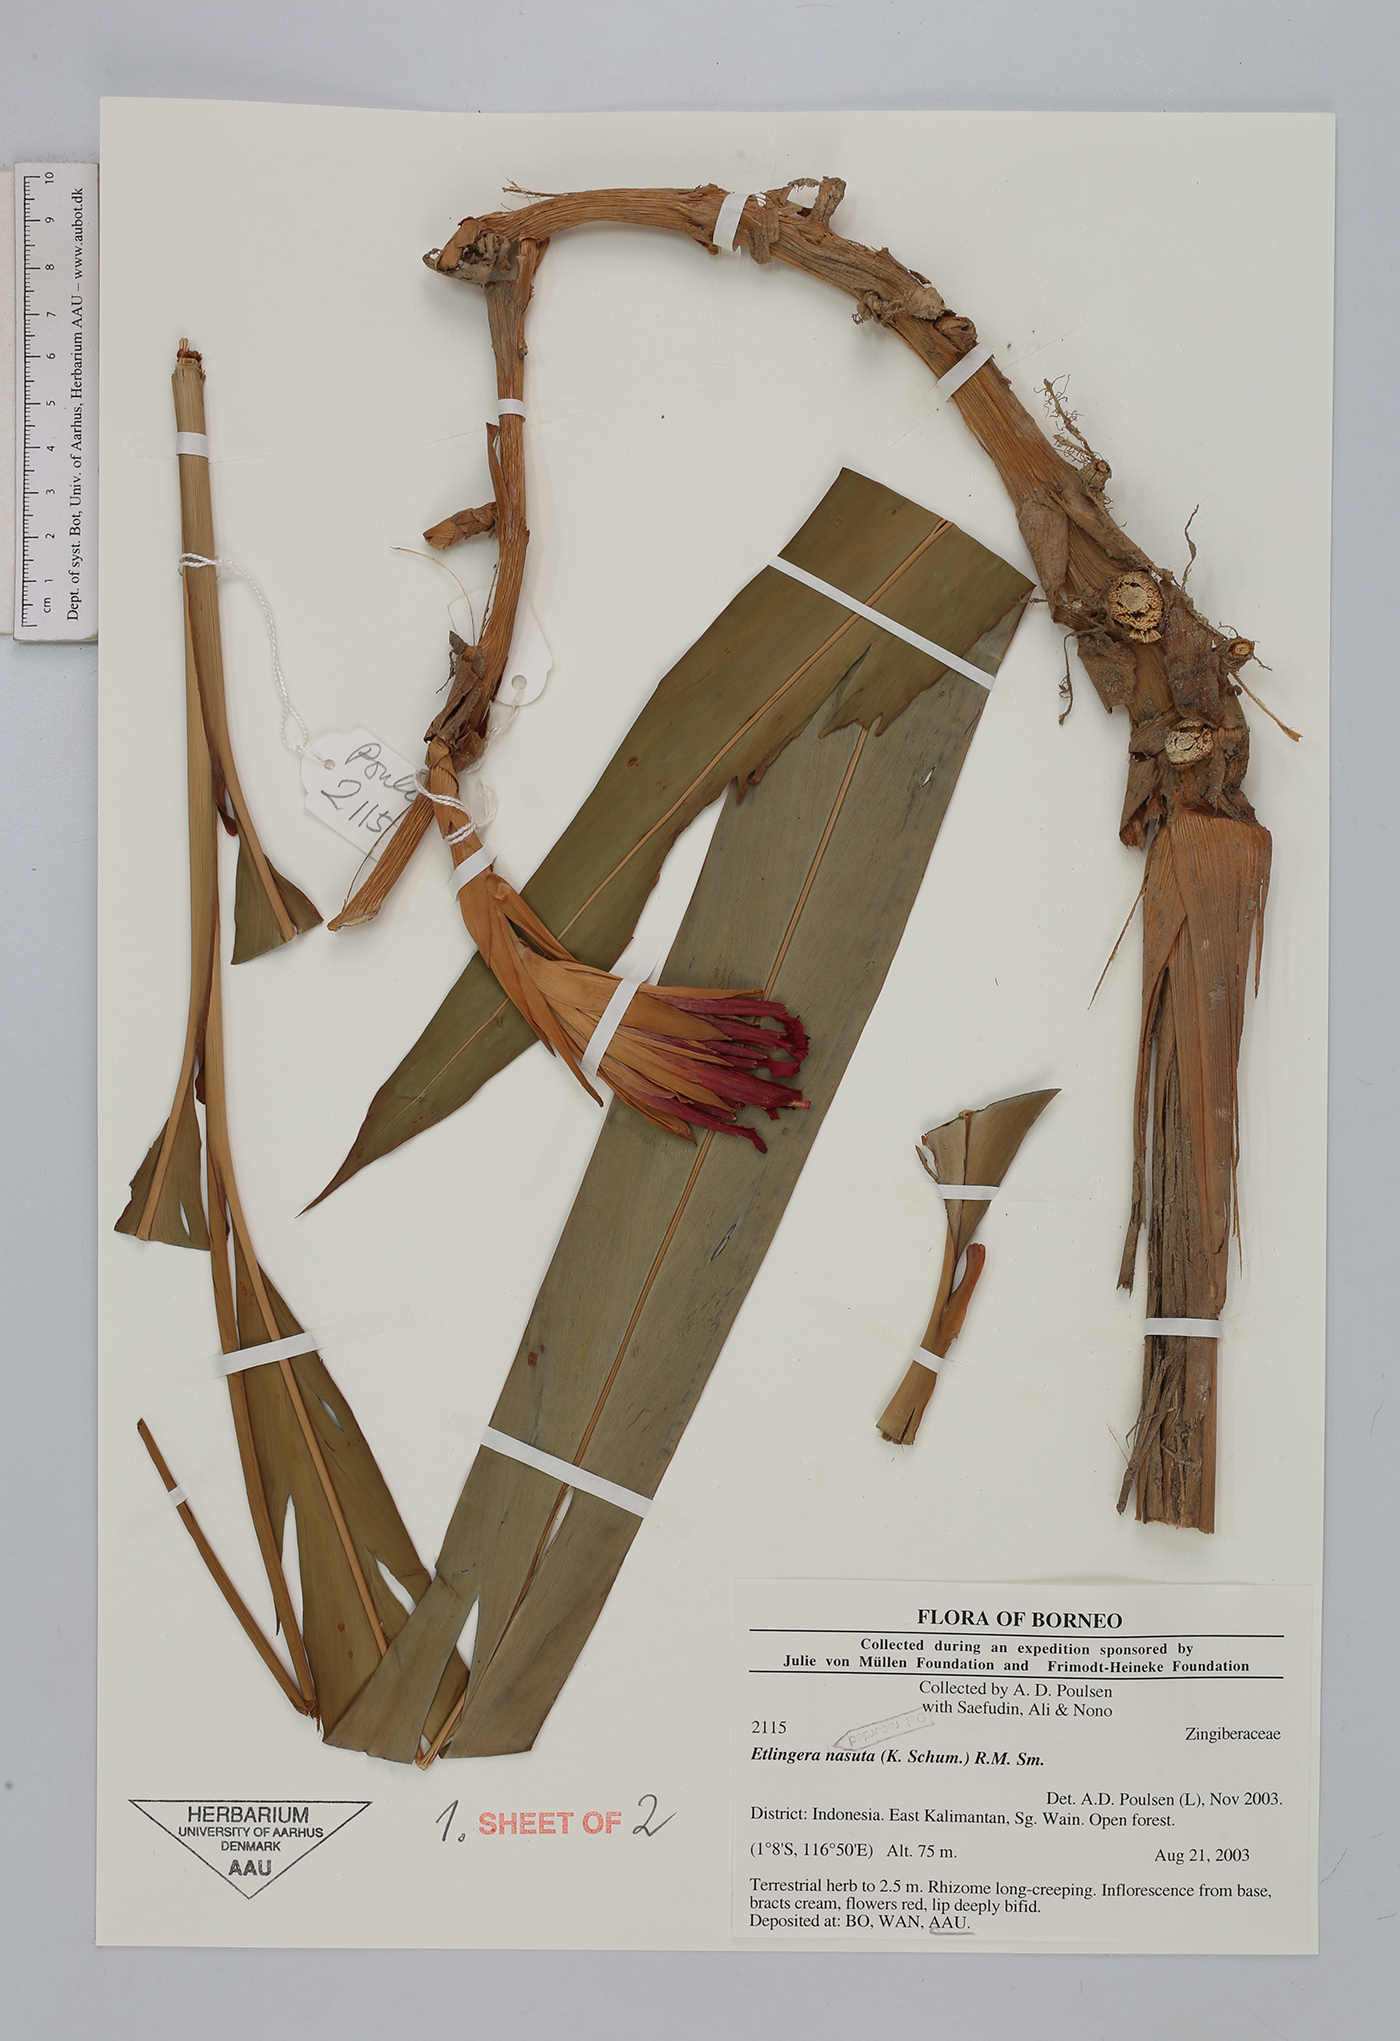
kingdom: Plantae
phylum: Tracheophyta
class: Liliopsida
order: Zingiberales
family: Zingiberaceae
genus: Etlingera
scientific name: Etlingera nasuta
